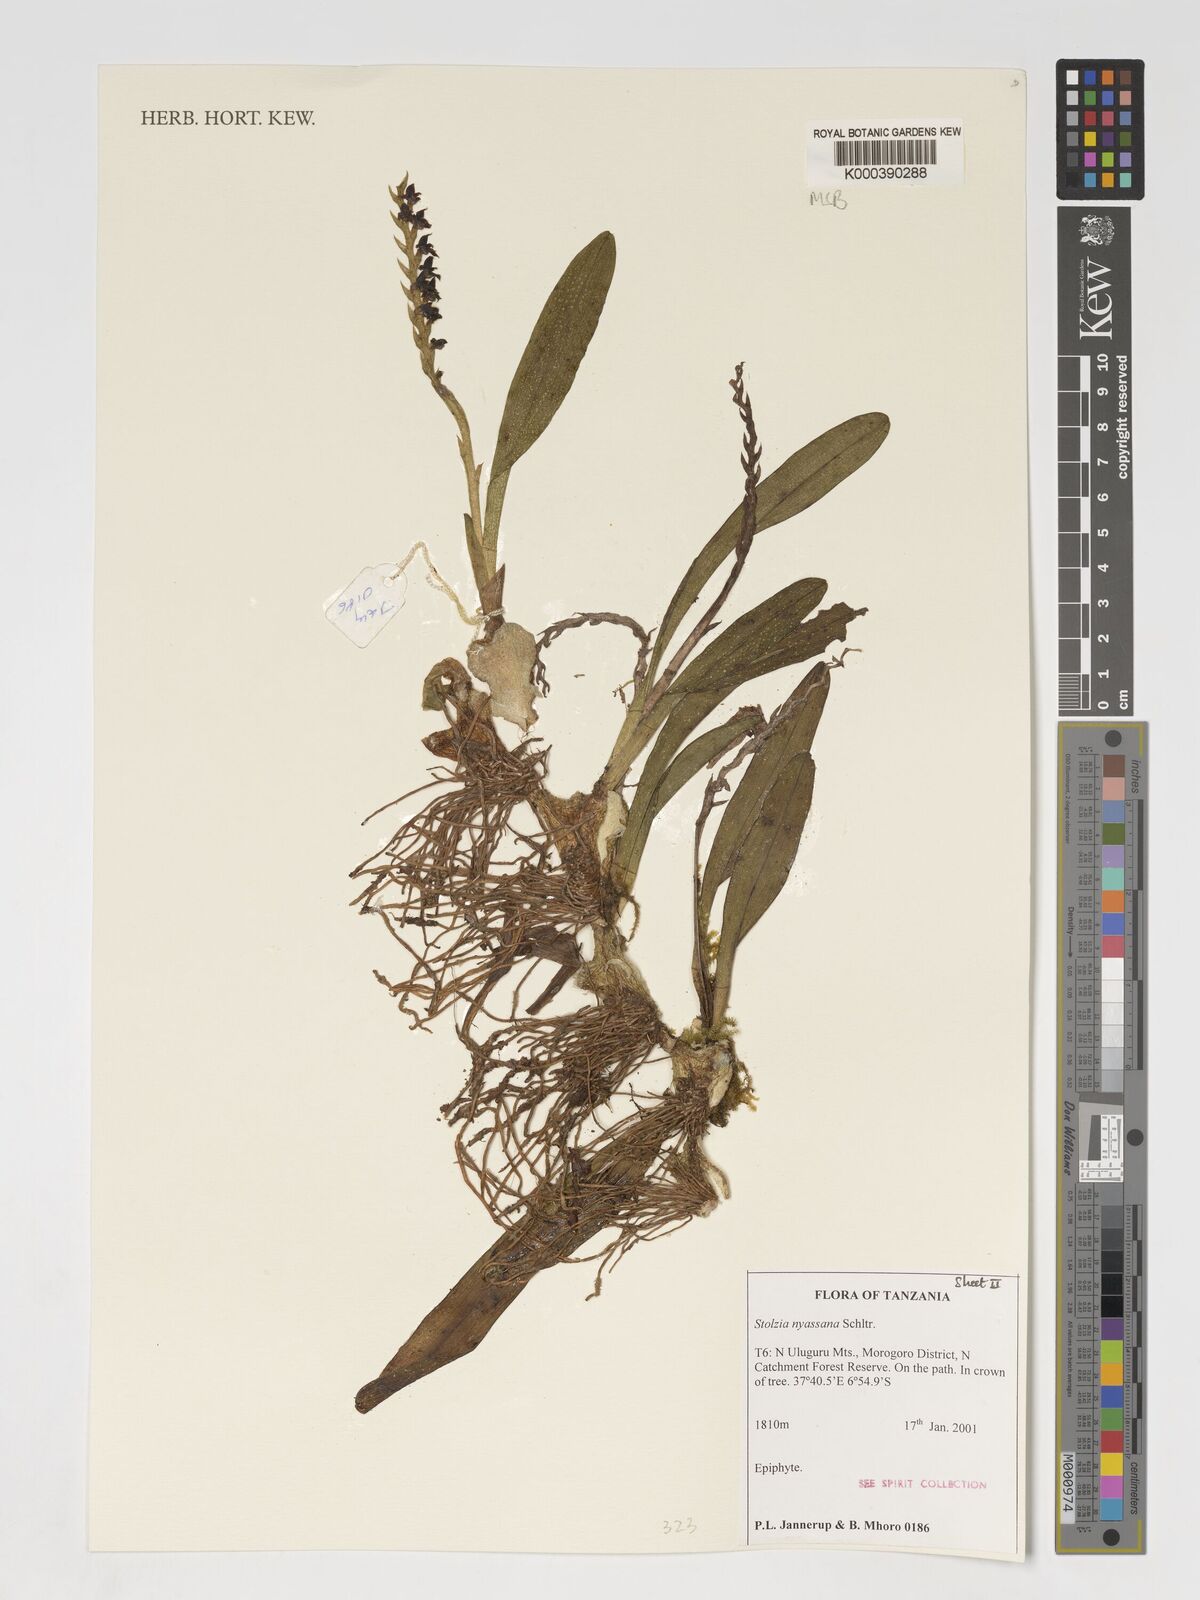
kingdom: Plantae
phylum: Tracheophyta
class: Liliopsida
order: Asparagales
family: Orchidaceae
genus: Porpax
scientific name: Porpax nyassana
